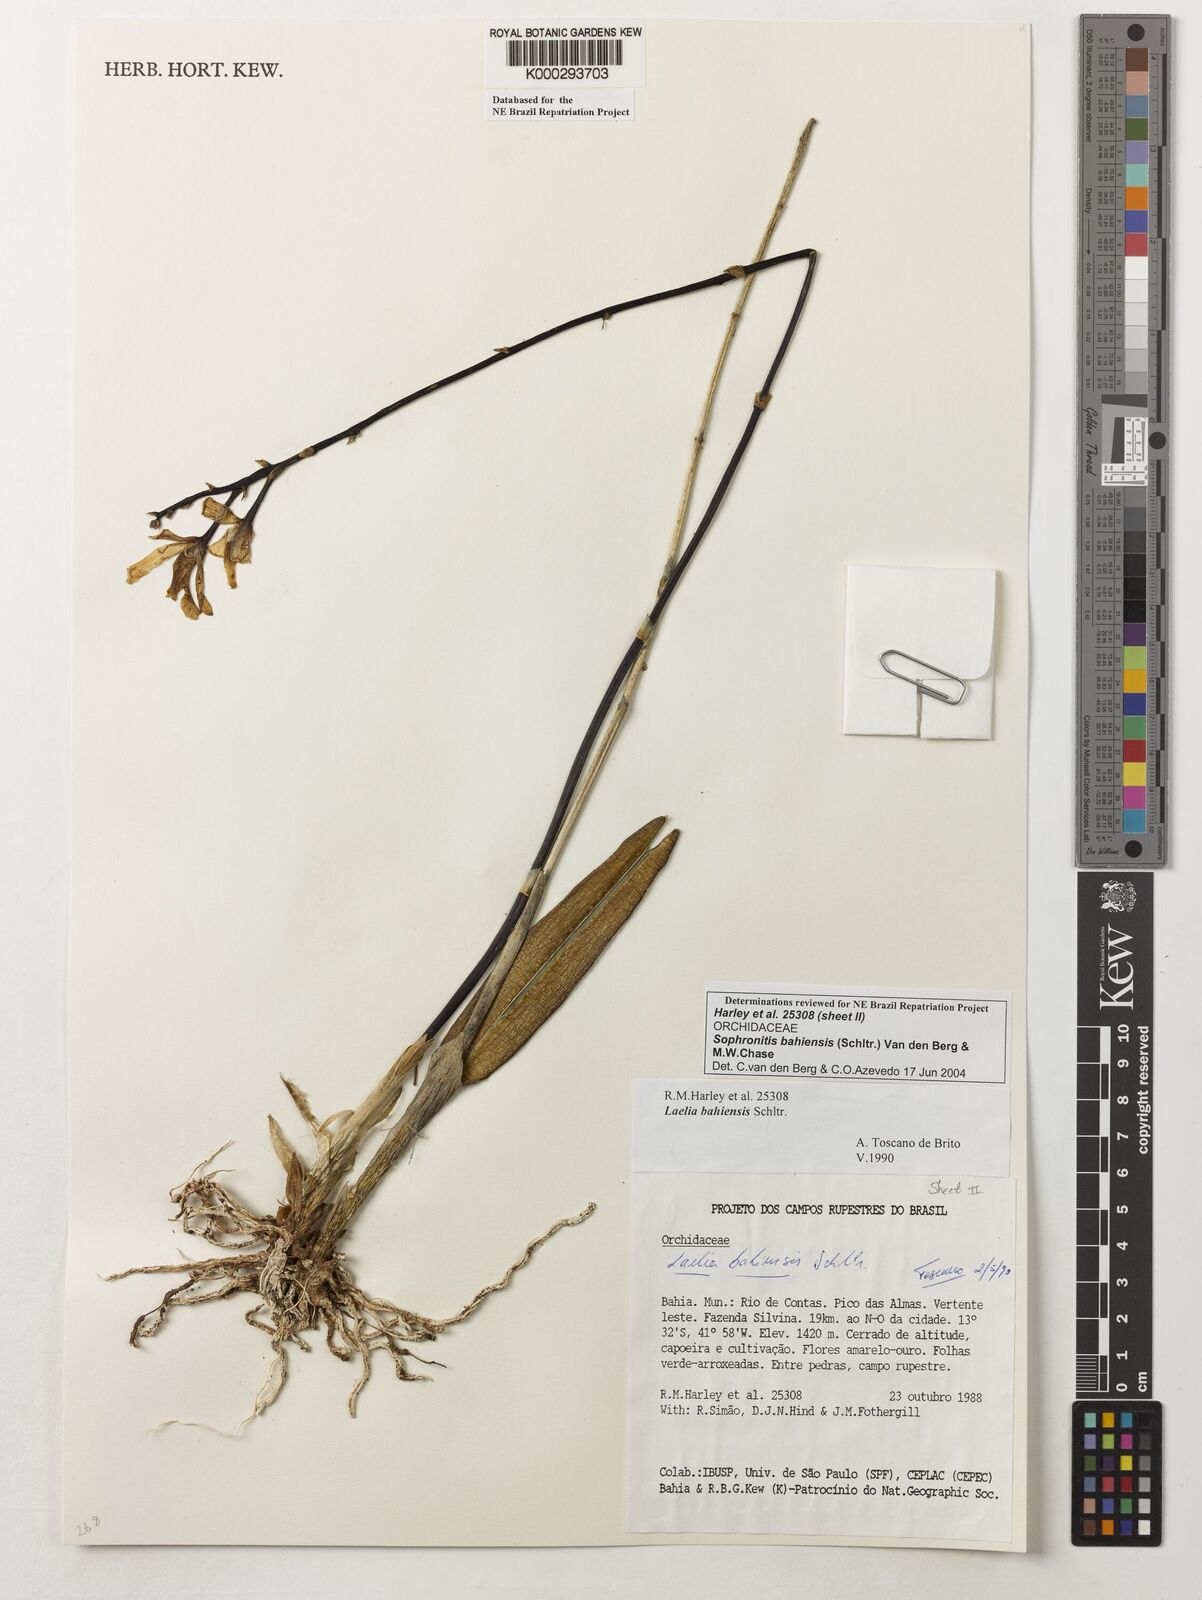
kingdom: Plantae
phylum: Tracheophyta
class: Liliopsida
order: Asparagales
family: Orchidaceae
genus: Cattleya
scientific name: Cattleya luetzelburgii
